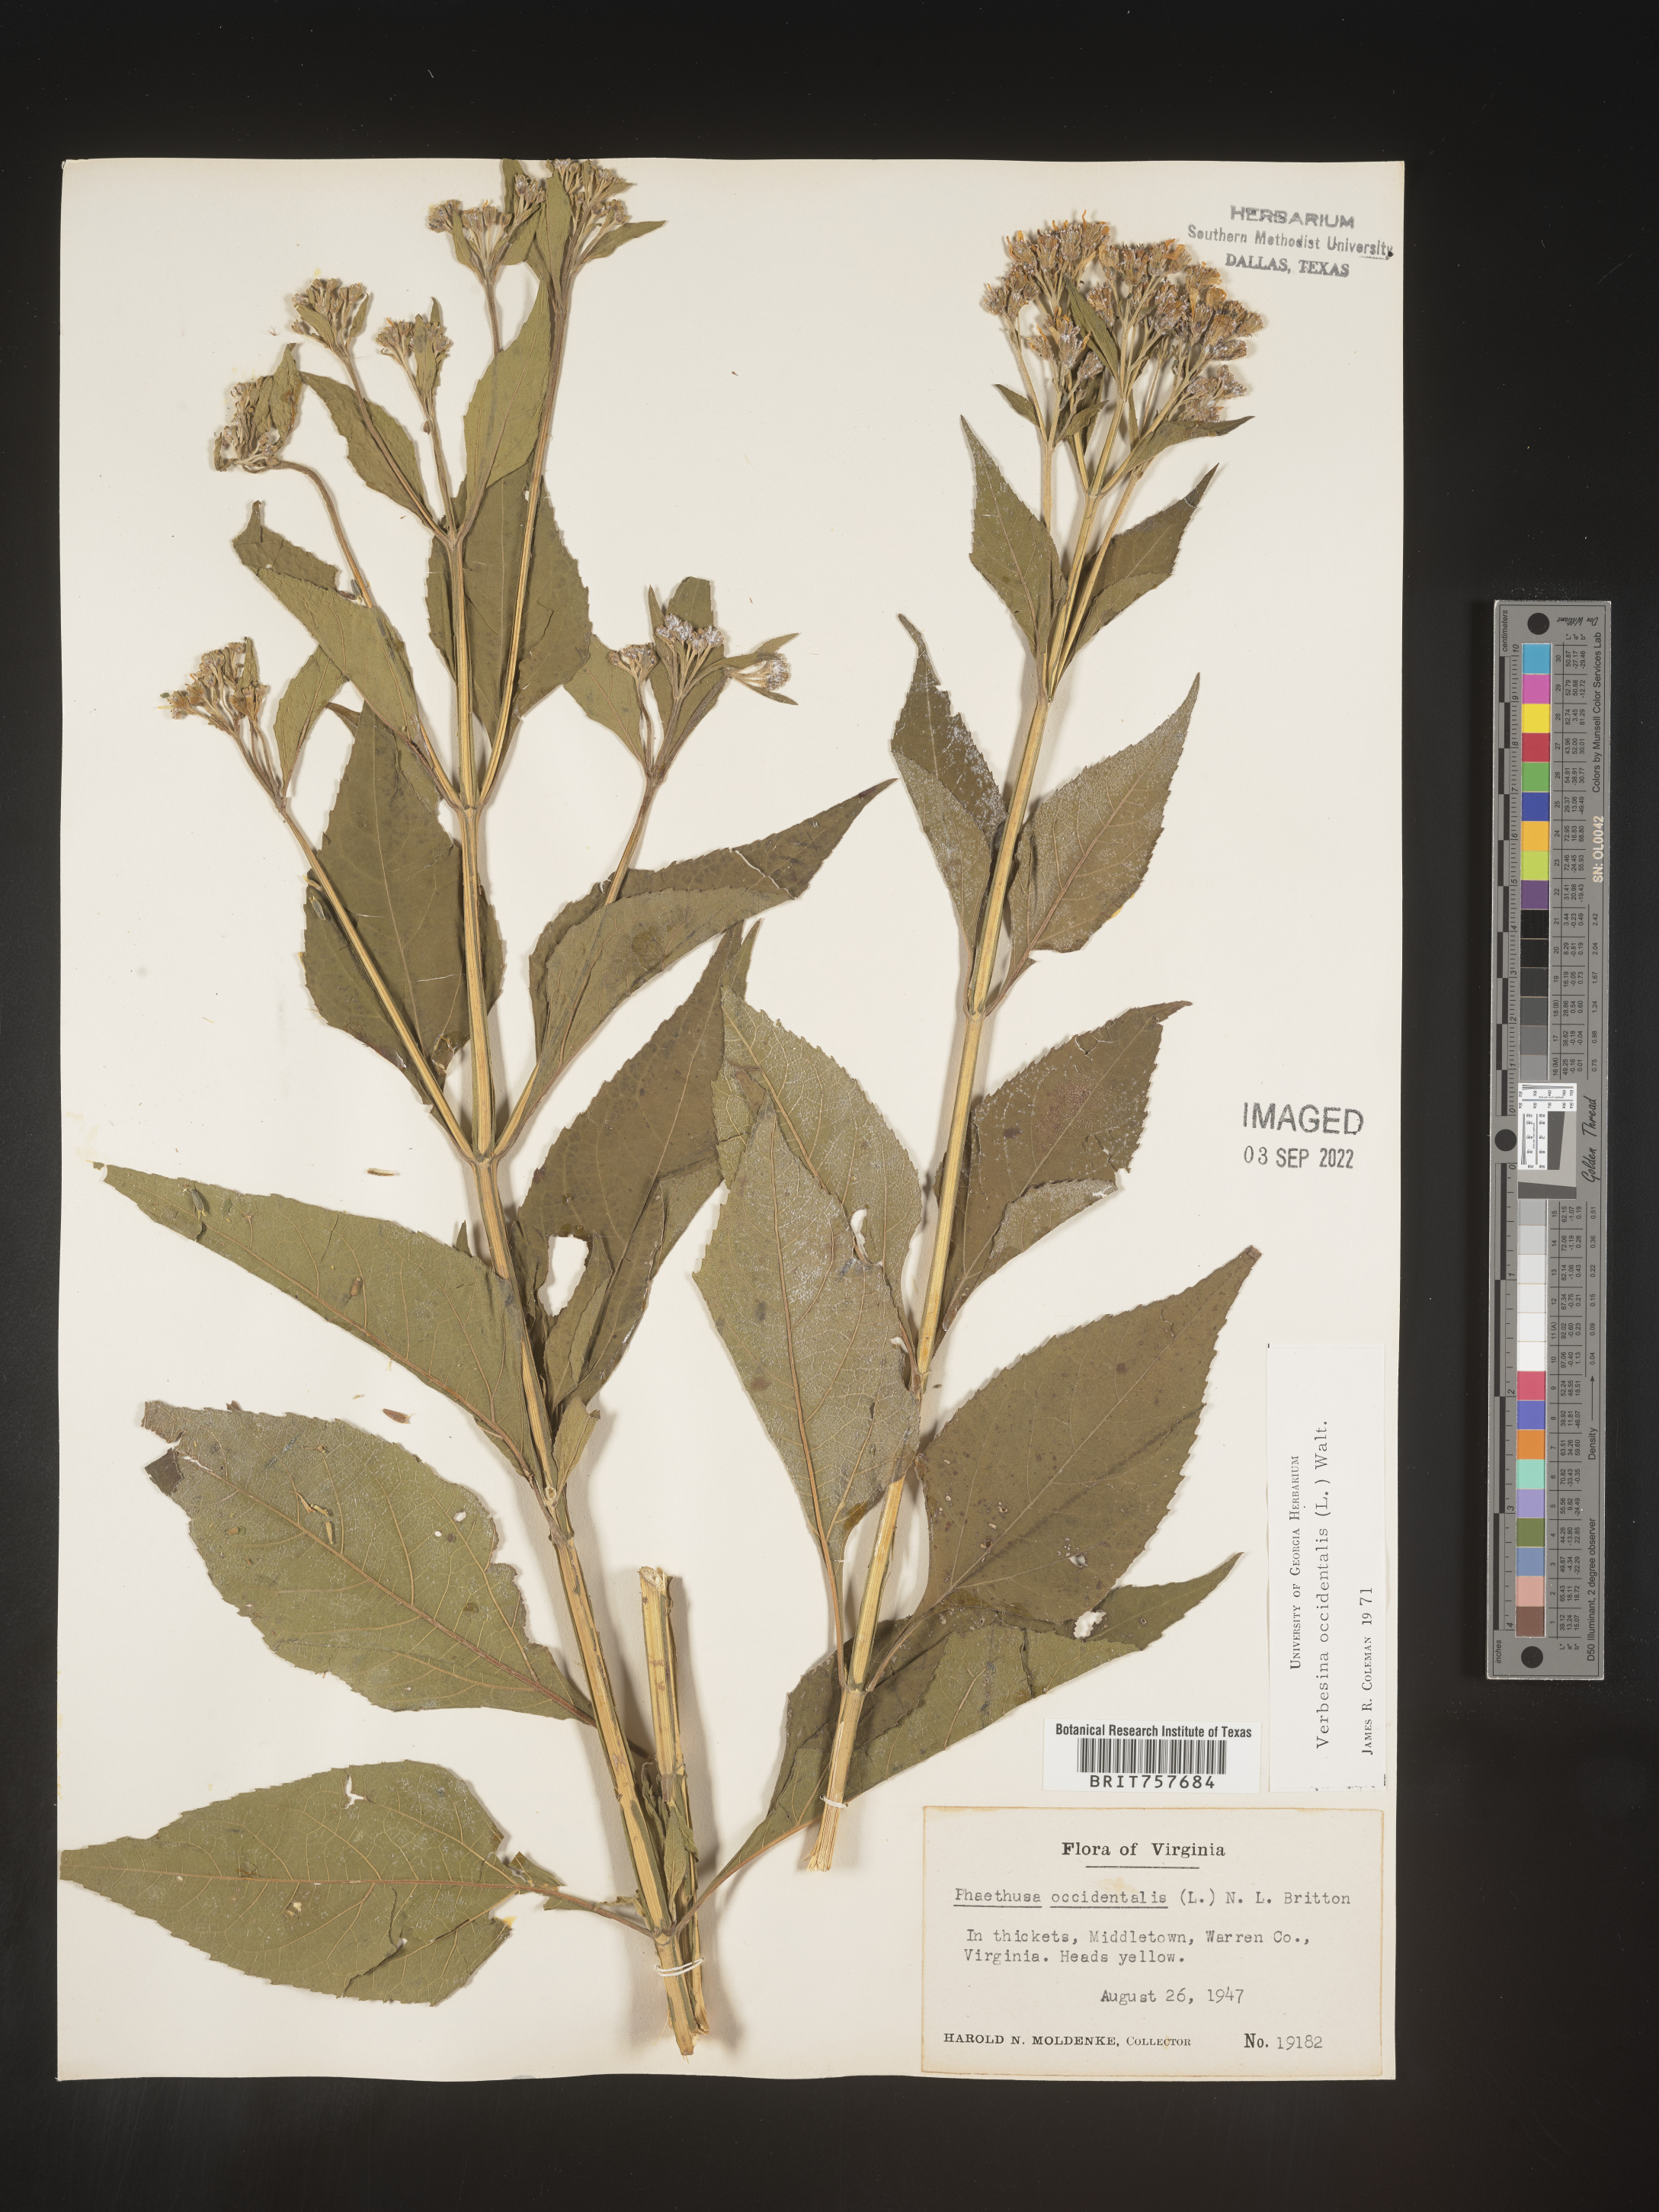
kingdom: Plantae
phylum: Tracheophyta
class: Magnoliopsida
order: Asterales
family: Asteraceae
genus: Verbesina
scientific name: Verbesina occidentalis
